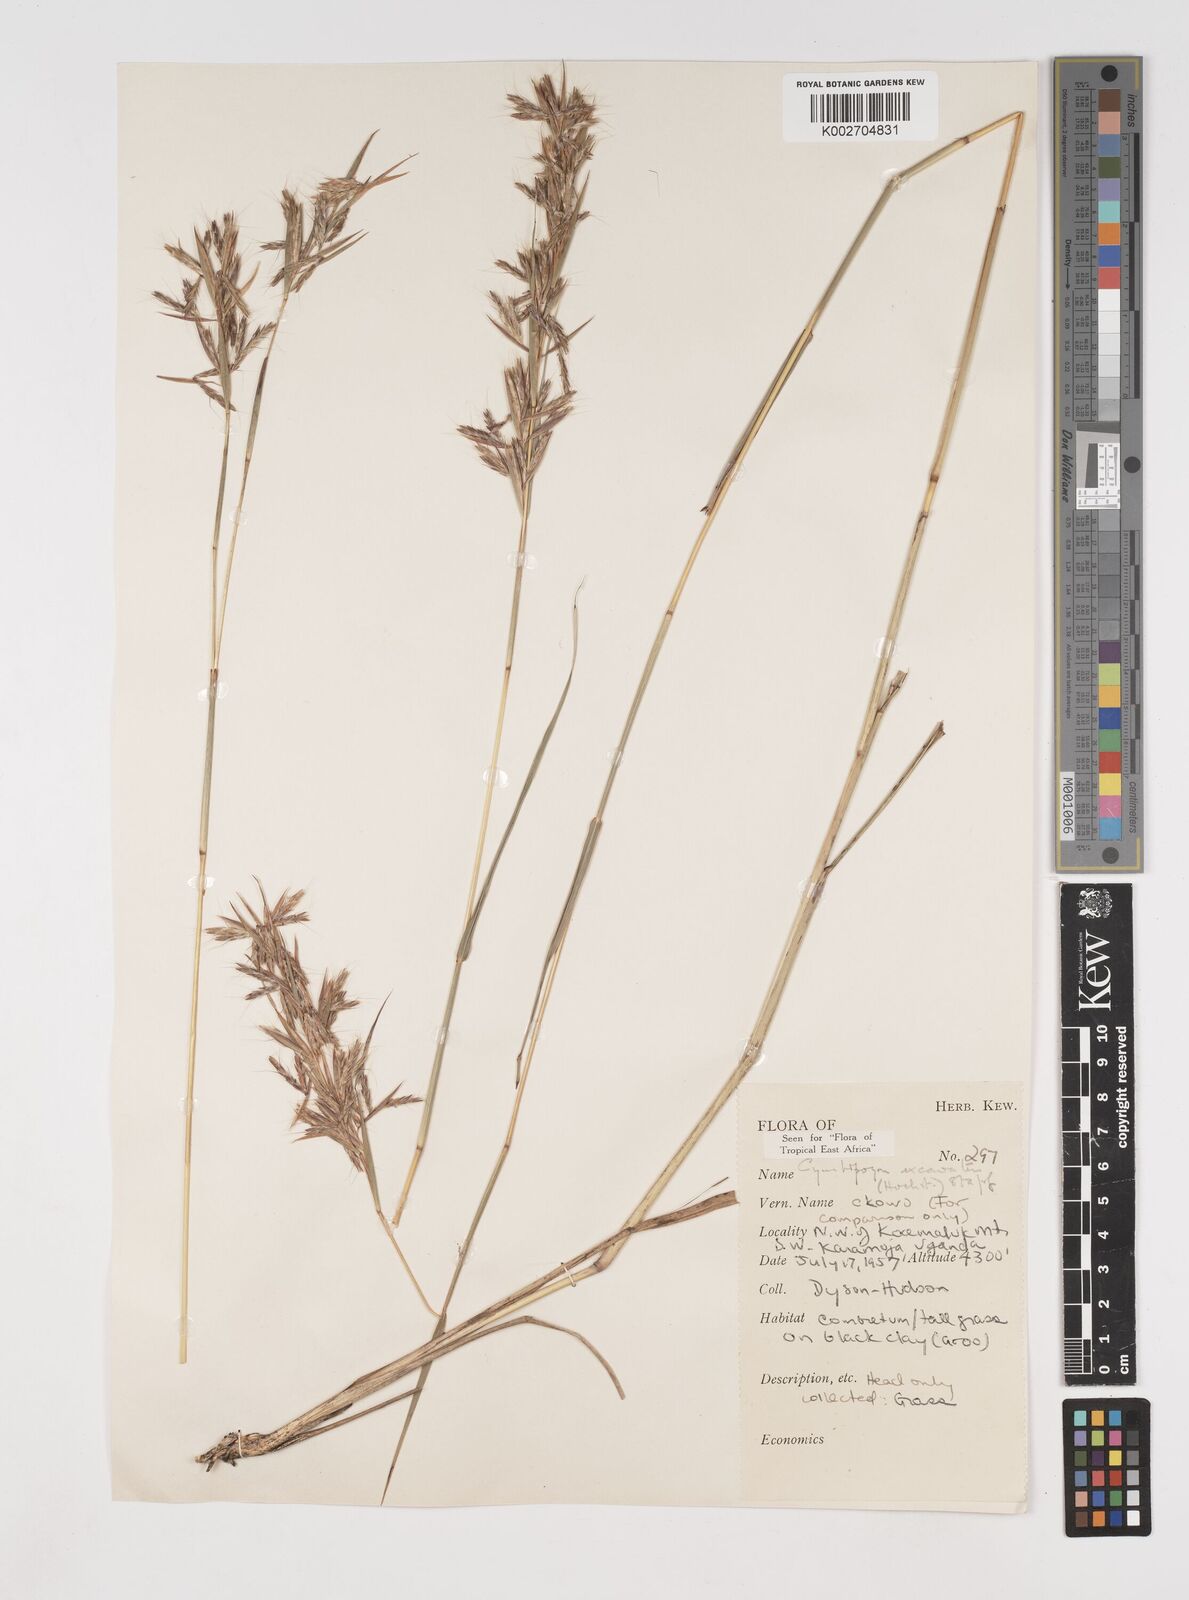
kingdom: Plantae
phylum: Tracheophyta
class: Liliopsida
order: Poales
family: Poaceae
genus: Cymbopogon
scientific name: Cymbopogon caesius
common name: Kachi grass
